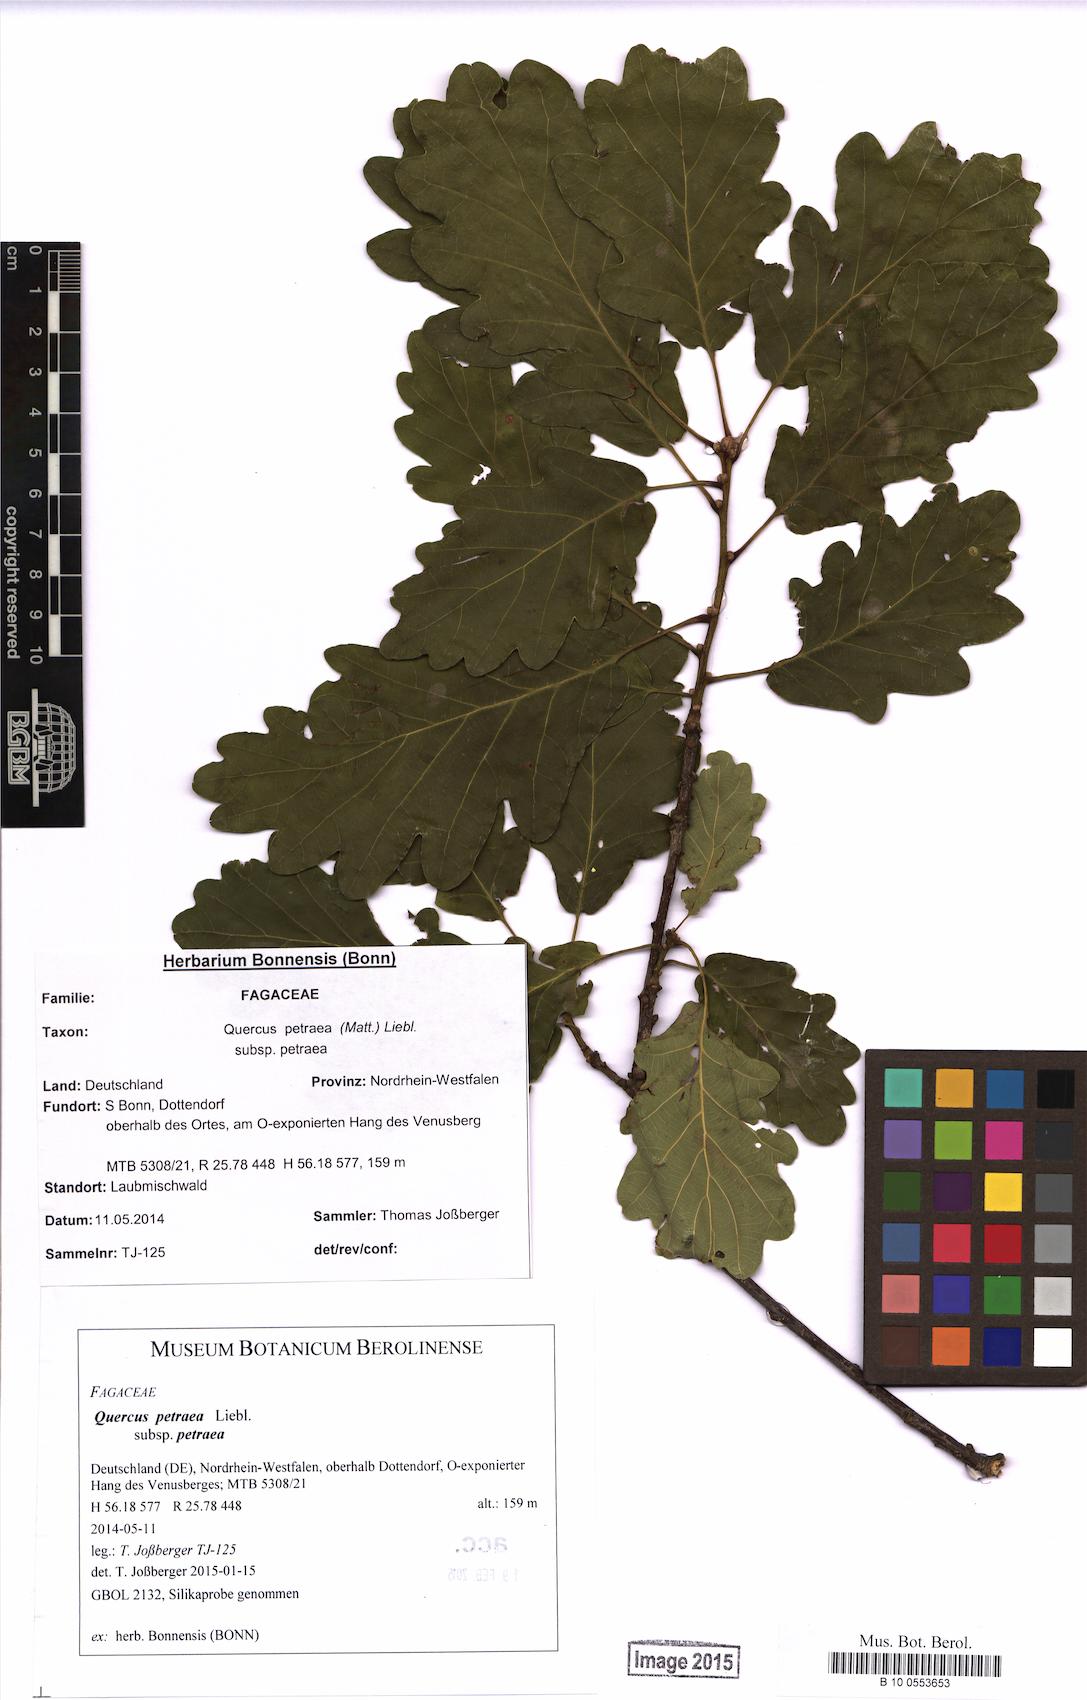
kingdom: Plantae
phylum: Tracheophyta
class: Magnoliopsida
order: Fagales
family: Fagaceae
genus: Quercus
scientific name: Quercus petraea
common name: Sessile oak
